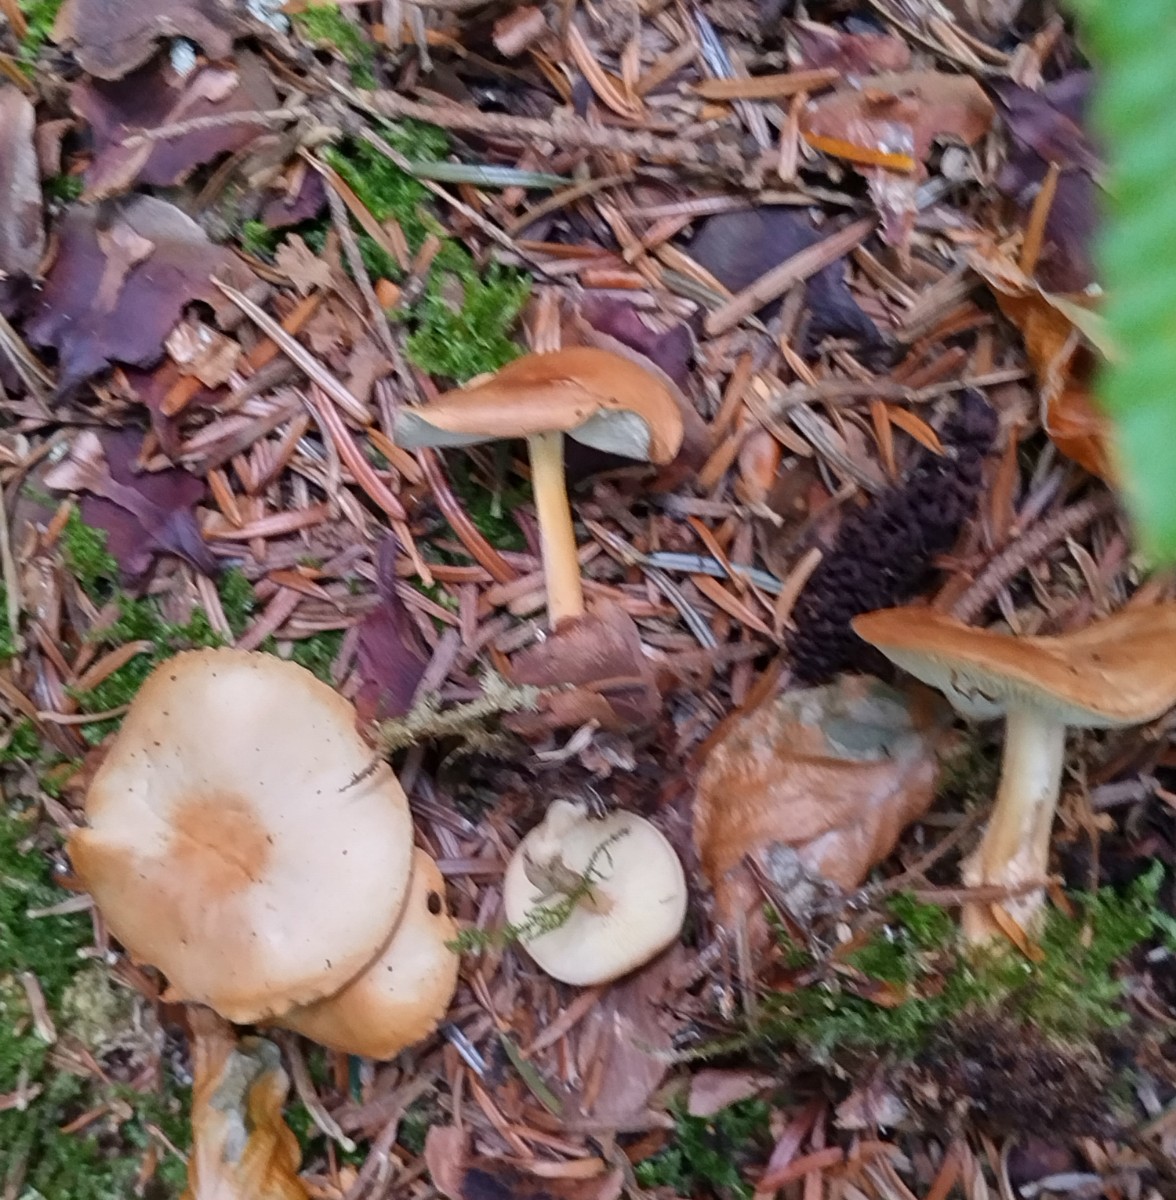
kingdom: Fungi
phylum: Basidiomycota
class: Agaricomycetes
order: Agaricales
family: Omphalotaceae
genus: Collybiopsis
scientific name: Collybiopsis peronata
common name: bestøvlet fladhat
